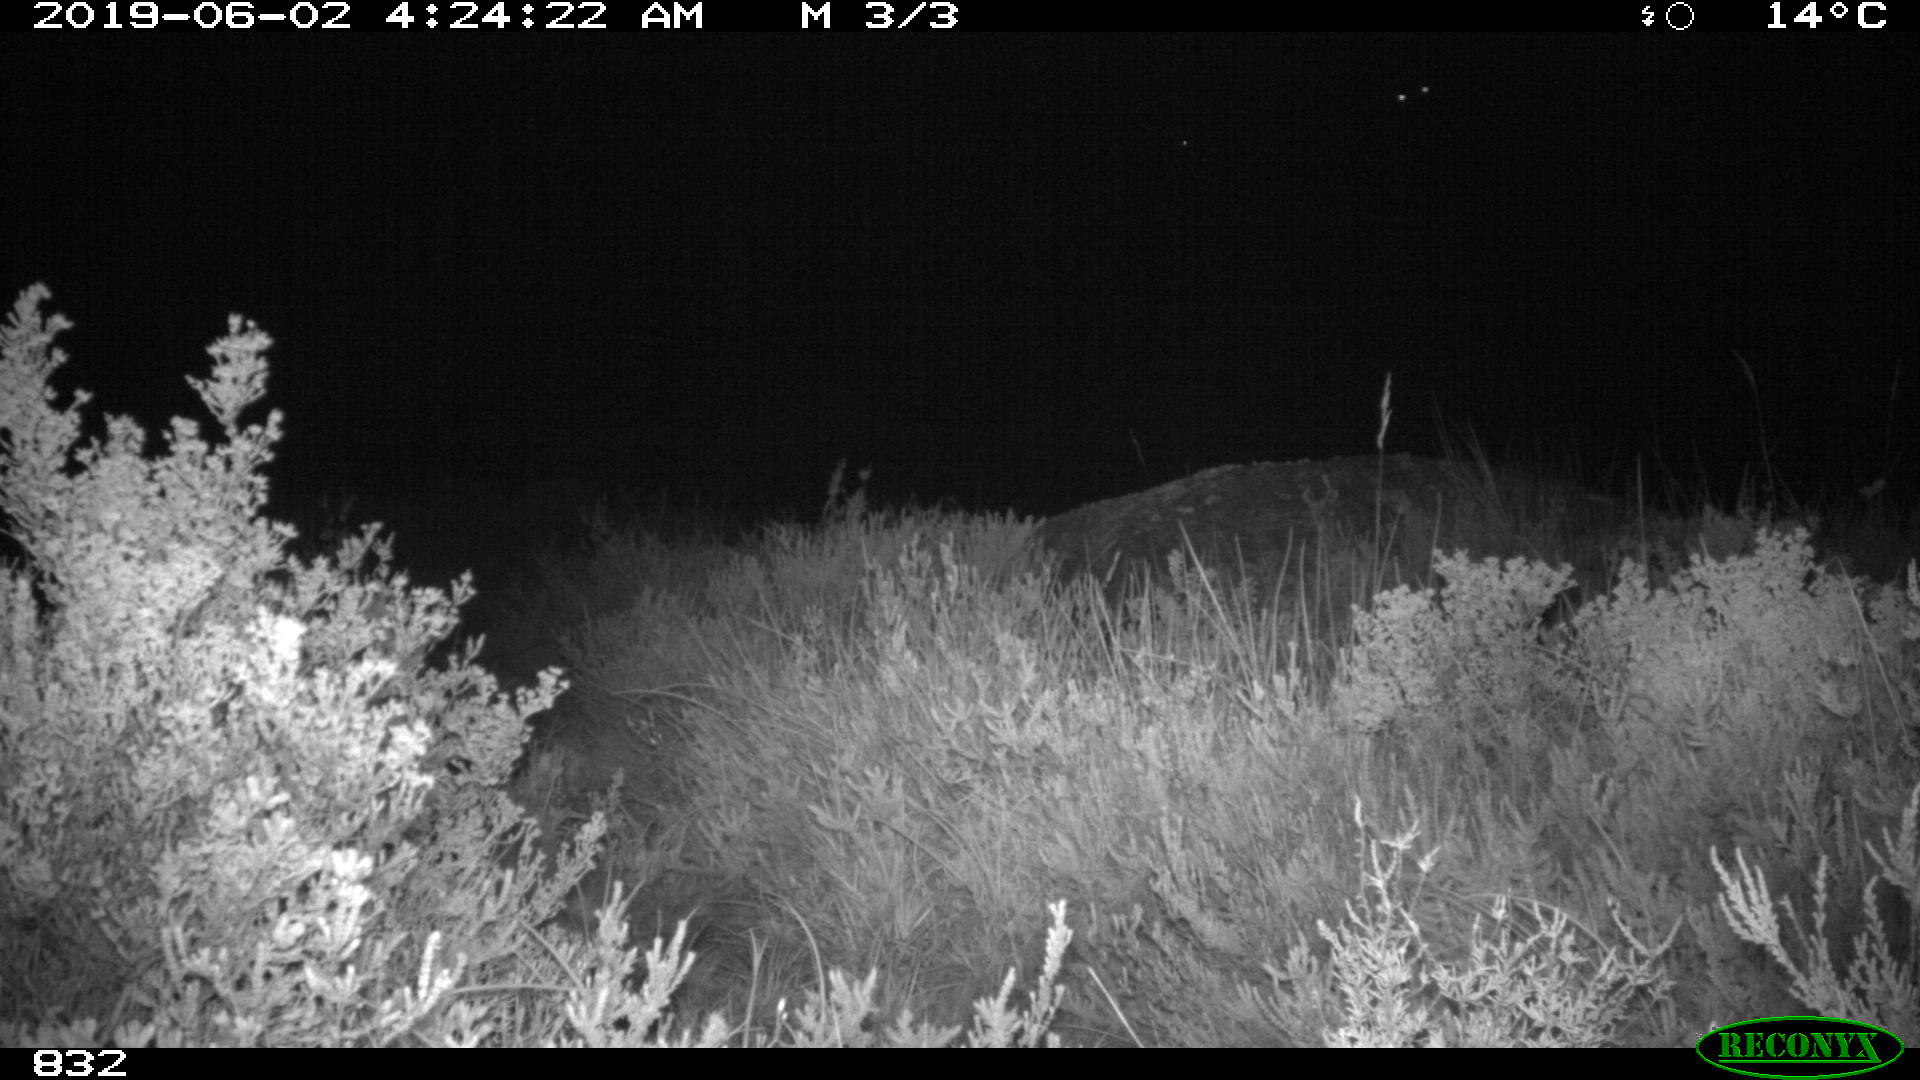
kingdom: Animalia
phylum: Chordata
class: Mammalia
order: Perissodactyla
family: Equidae
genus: Equus
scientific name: Equus caballus
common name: Horse
